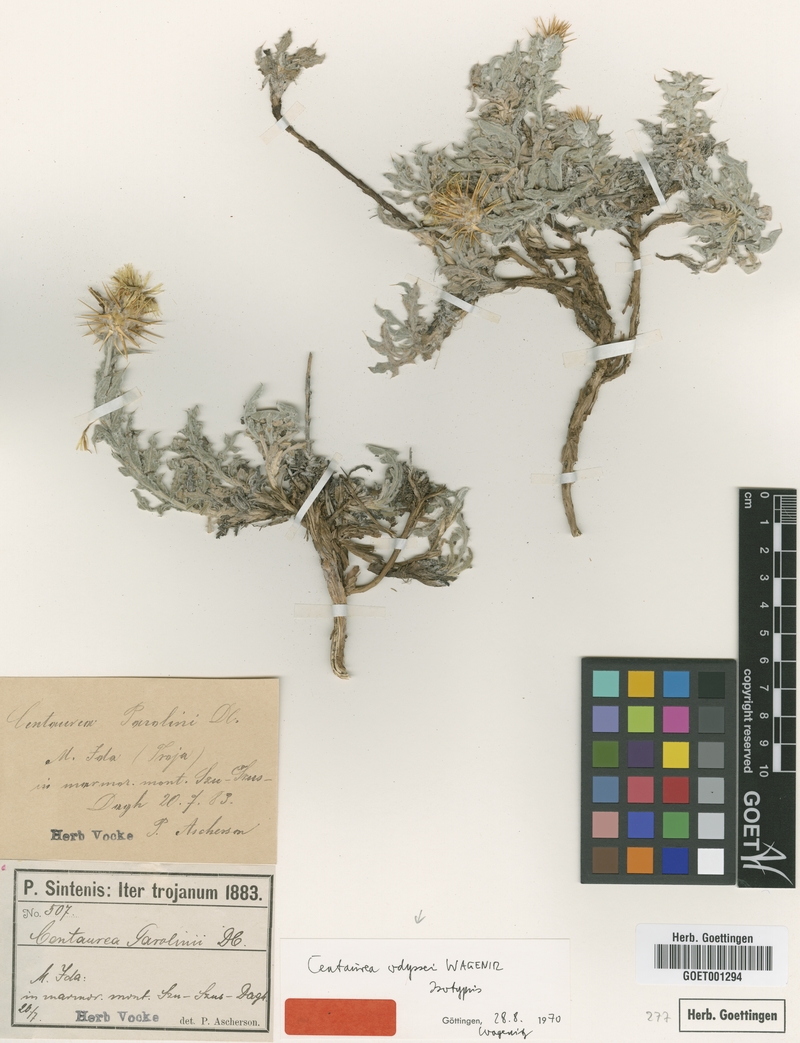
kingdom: Plantae
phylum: Tracheophyta
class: Magnoliopsida
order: Asterales
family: Asteraceae
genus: Centaurea
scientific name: Centaurea odyssei
